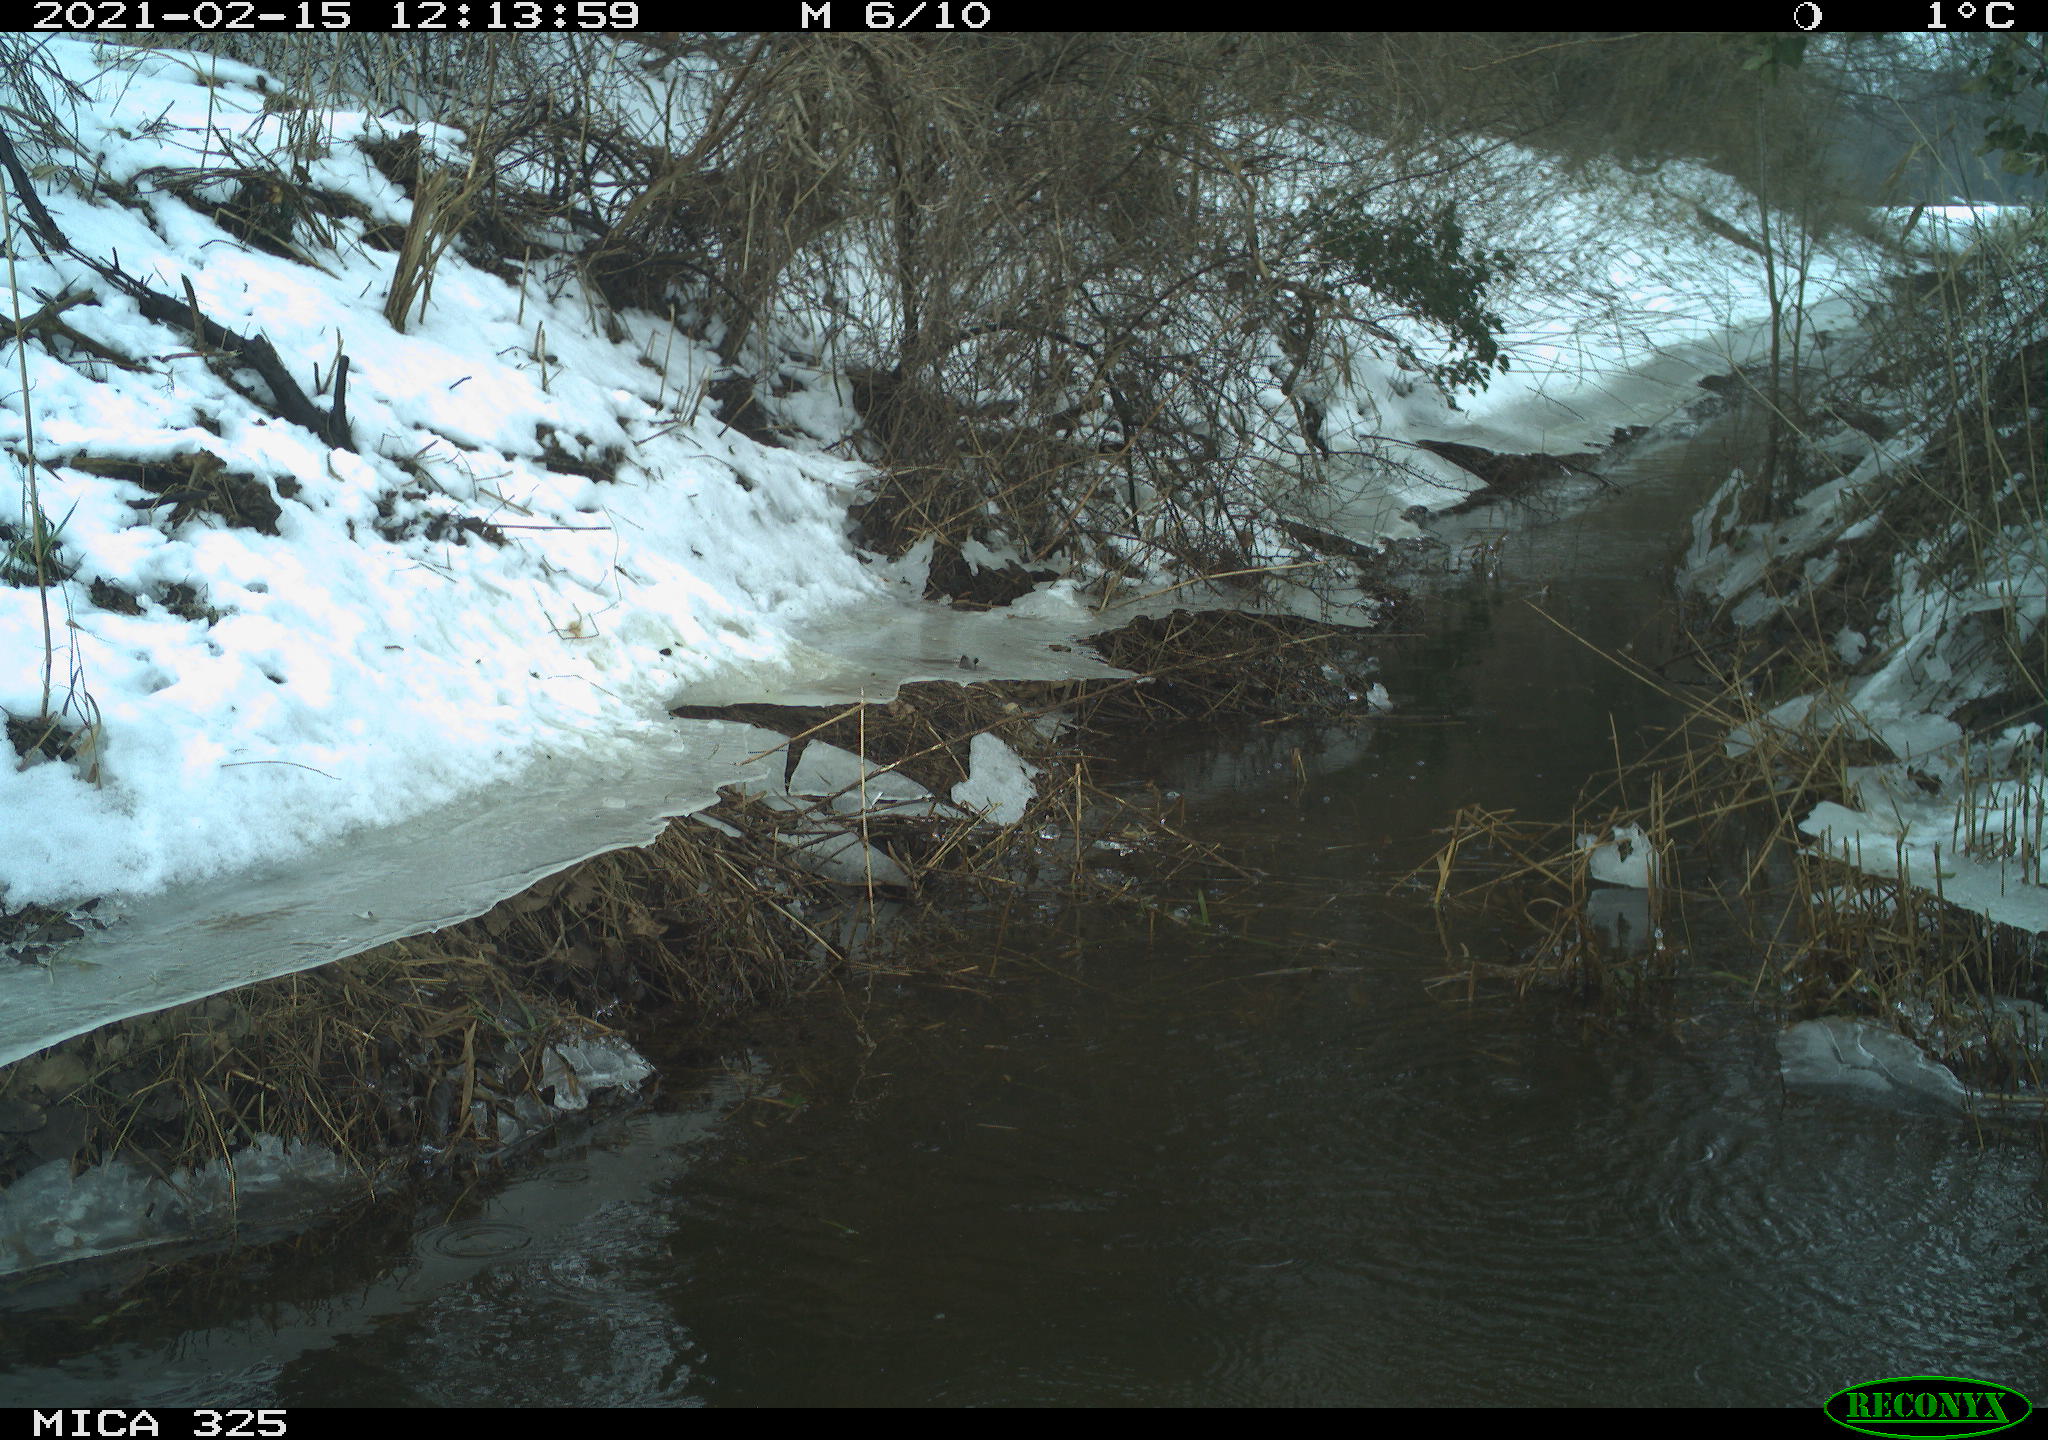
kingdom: Animalia
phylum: Chordata
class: Aves
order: Pelecaniformes
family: Ardeidae
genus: Ardea
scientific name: Ardea alba
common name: Great egret
